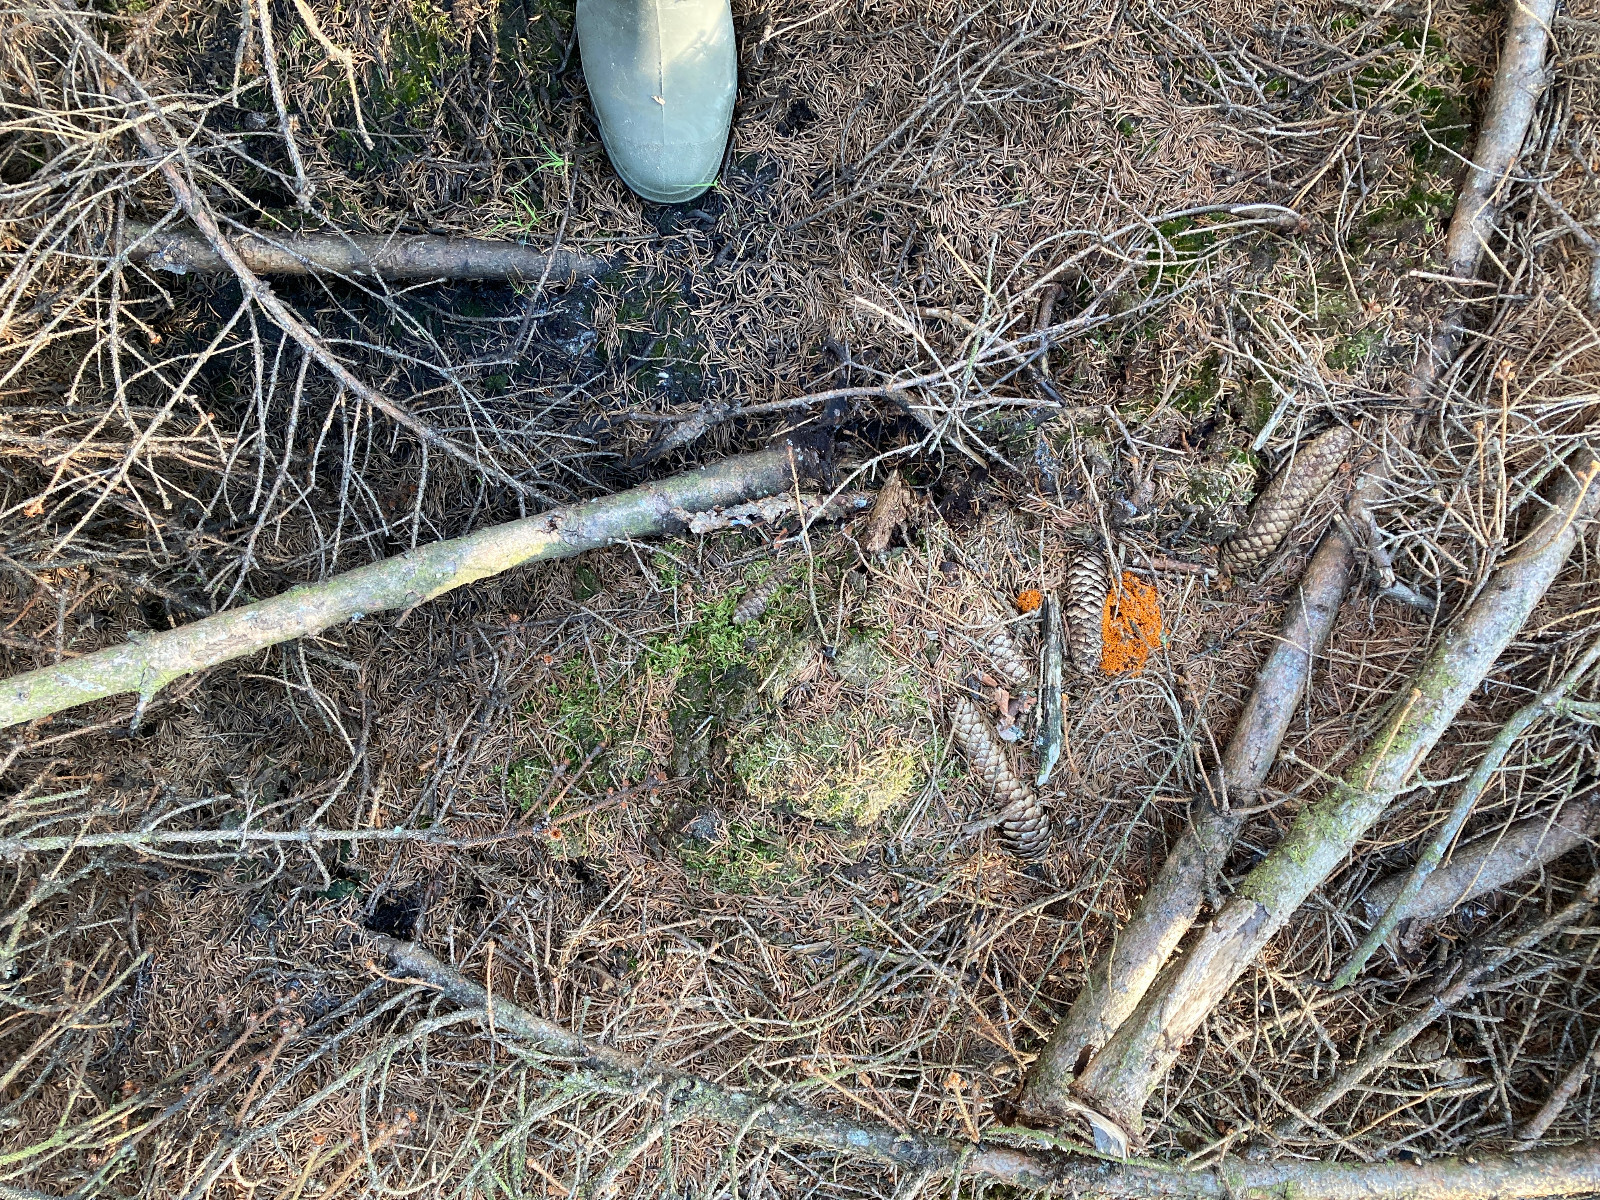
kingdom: Protozoa
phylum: Mycetozoa
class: Myxomycetes
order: Physarales
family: Physaraceae
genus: Leocarpus
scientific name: Leocarpus fragilis
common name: poleret glatfrø
